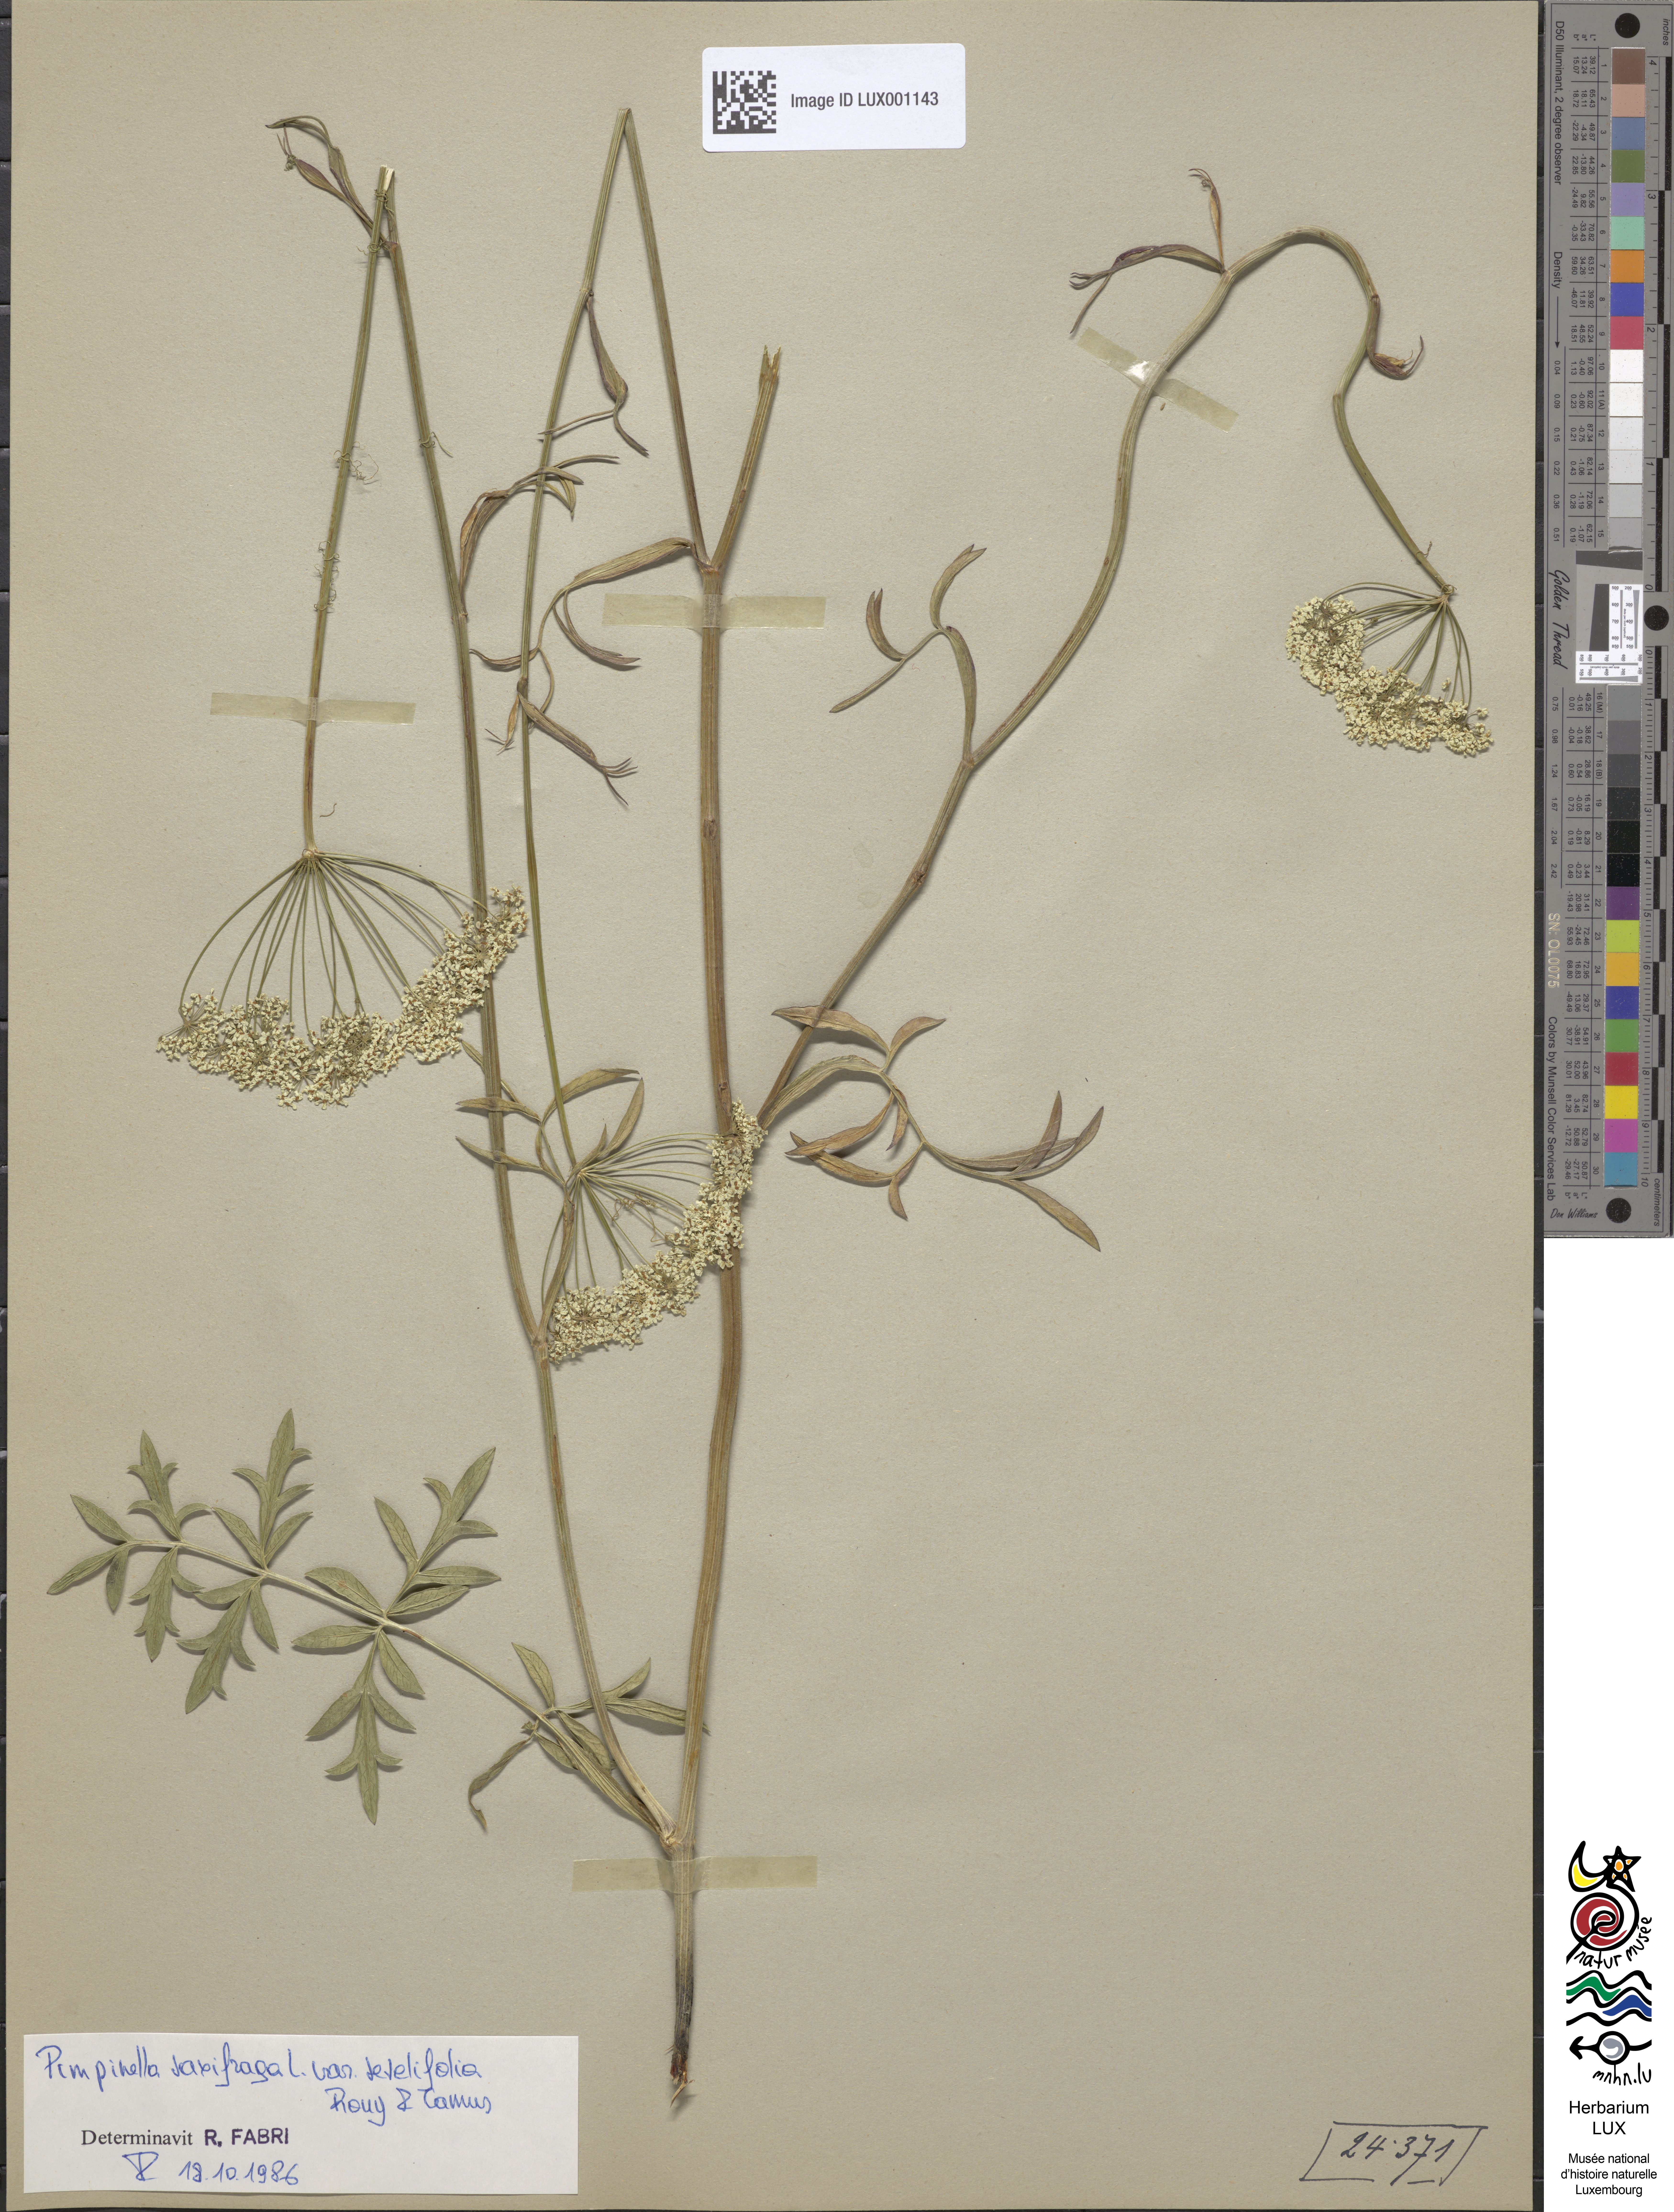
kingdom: Plantae
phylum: Tracheophyta
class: Magnoliopsida
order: Apiales
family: Apiaceae
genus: Pimpinella
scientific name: Pimpinella major
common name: Greater burnet-saxifrage
